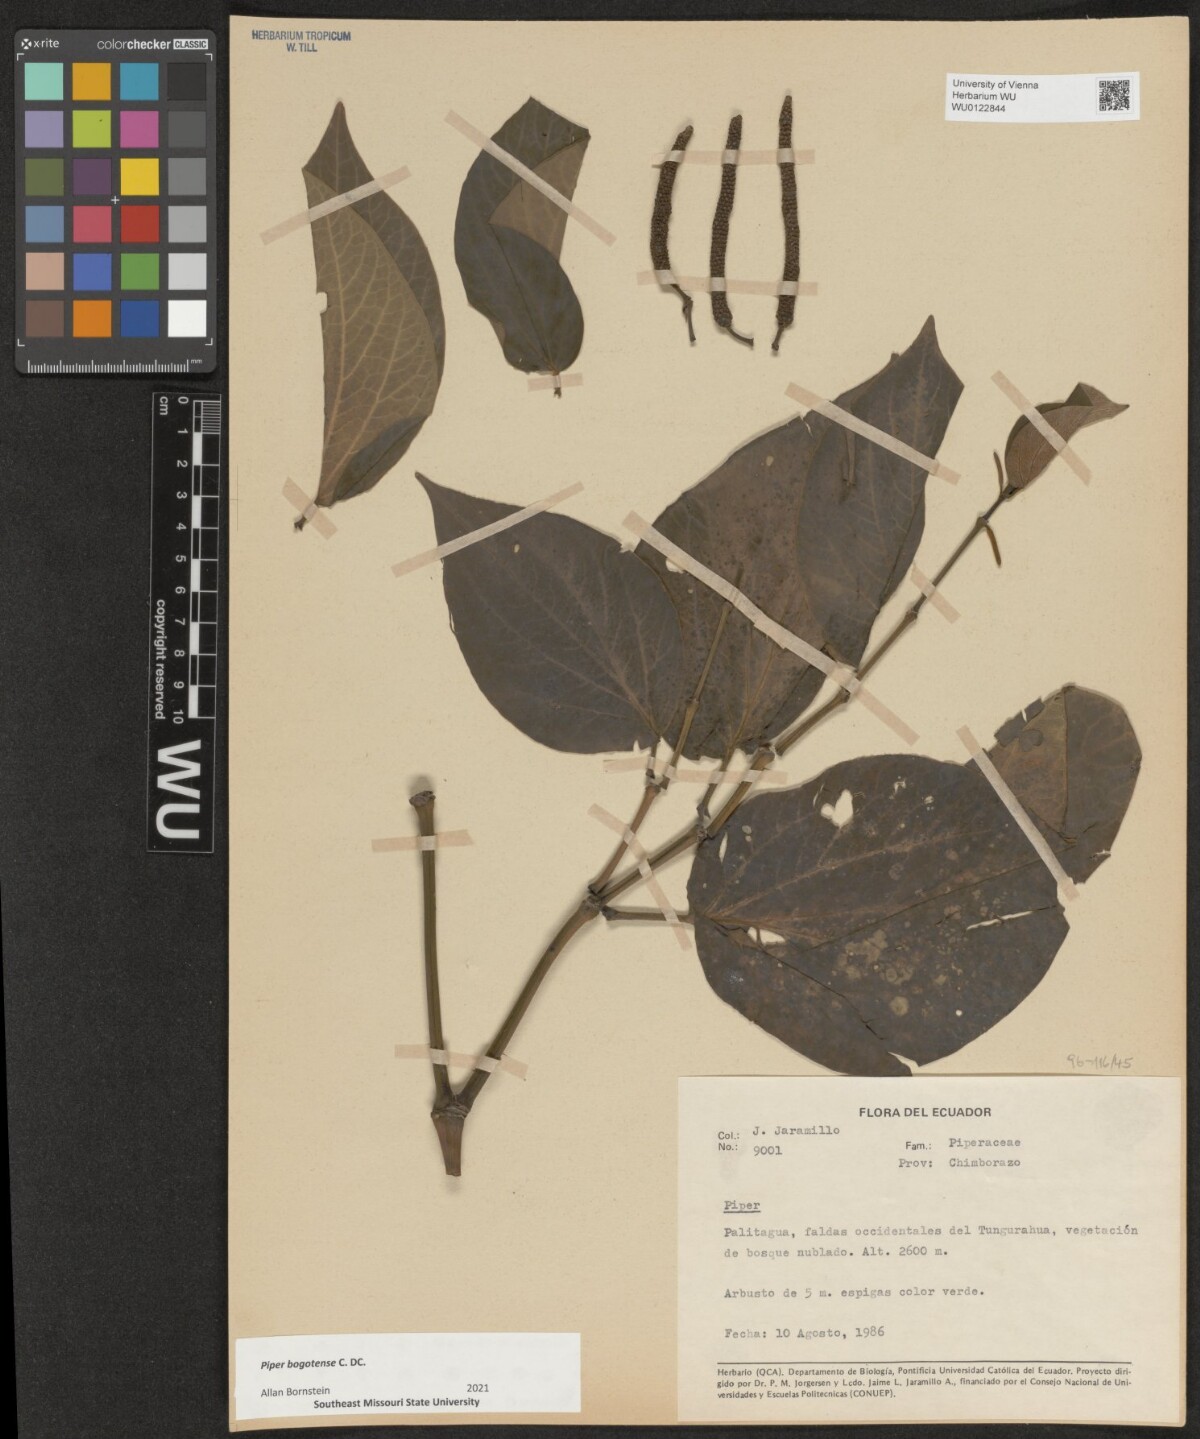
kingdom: Plantae
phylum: Tracheophyta
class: Magnoliopsida
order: Piperales
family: Piperaceae
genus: Piper
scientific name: Piper bogotense
